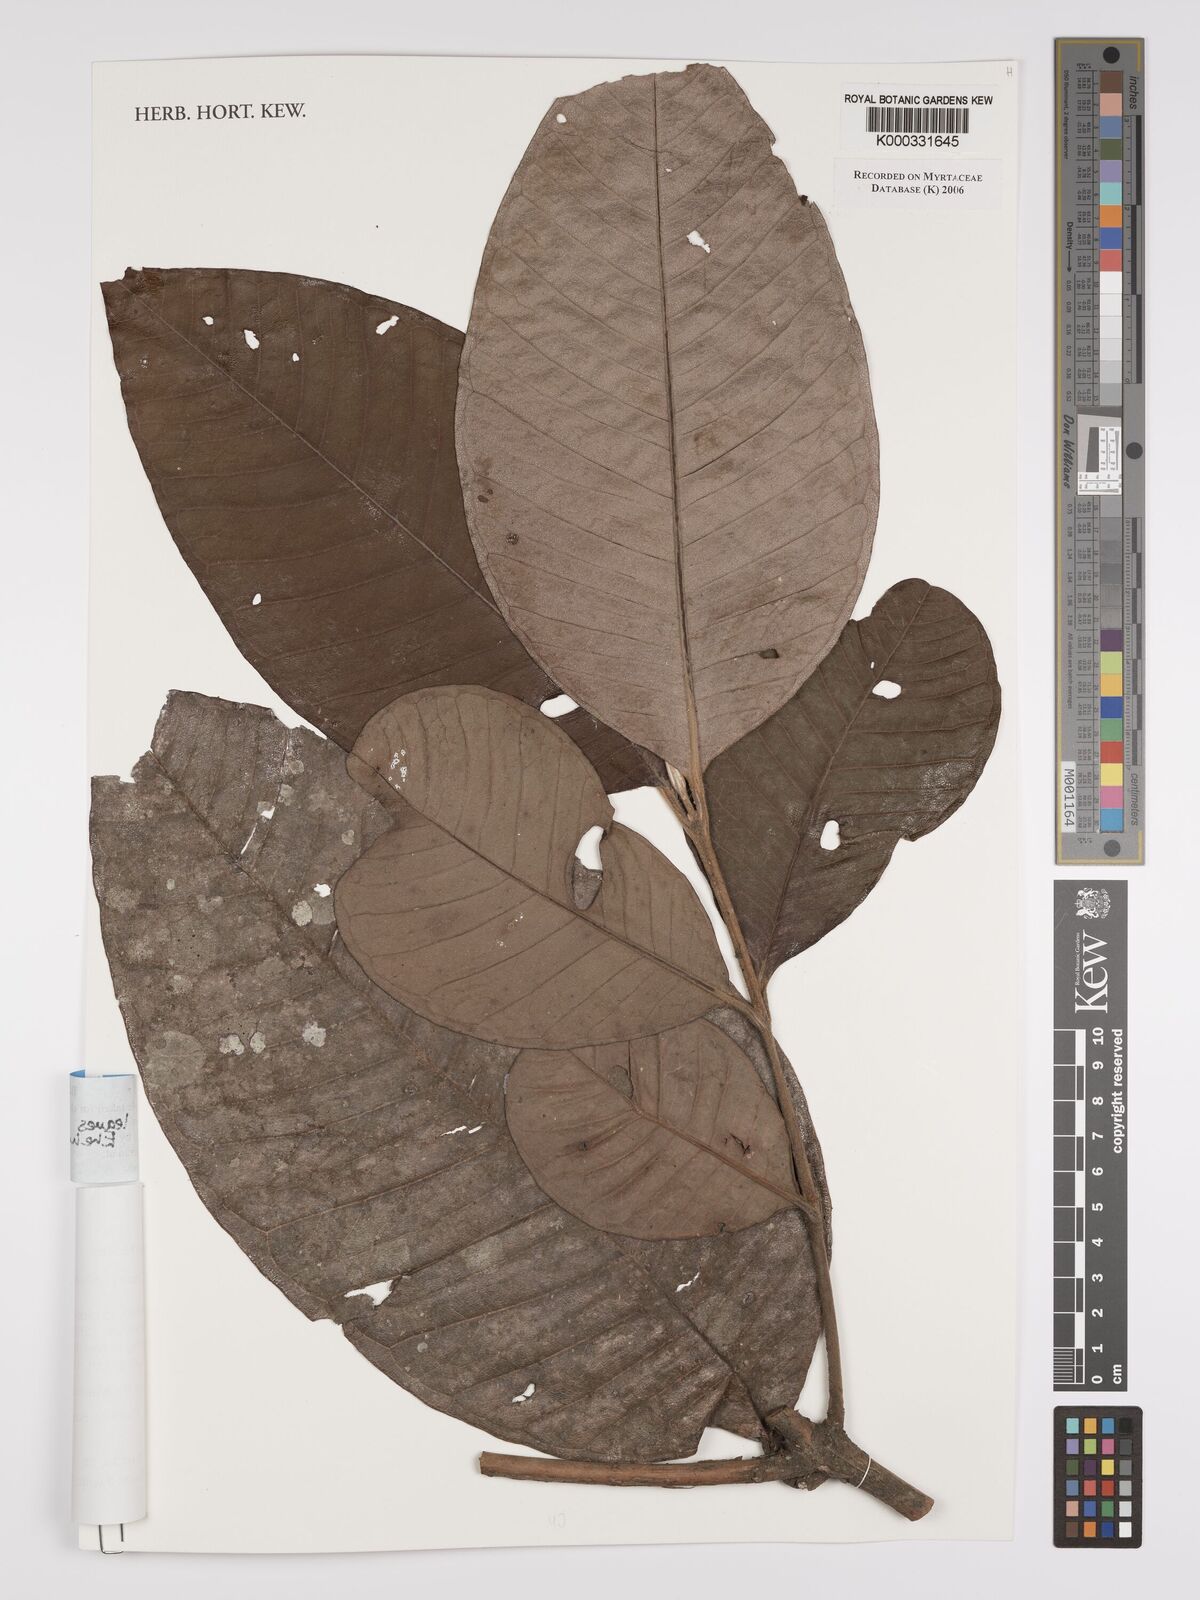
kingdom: Plantae
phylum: Tracheophyta
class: Magnoliopsida
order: Myrtales
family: Myrtaceae
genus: Myrcia
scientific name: Myrcia pubipetala
